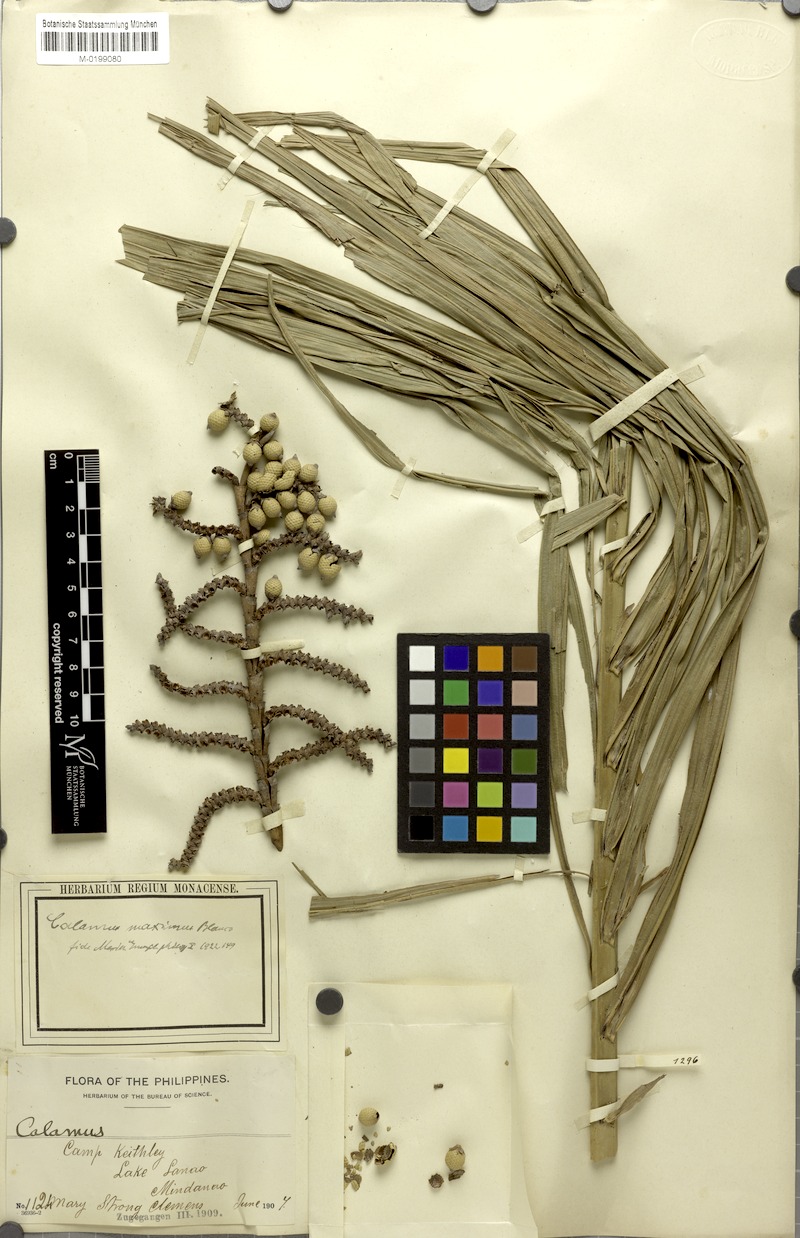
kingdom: Plantae
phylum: Tracheophyta
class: Liliopsida
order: Arecales
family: Arecaceae
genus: Calamus
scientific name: Calamus zollingeri
